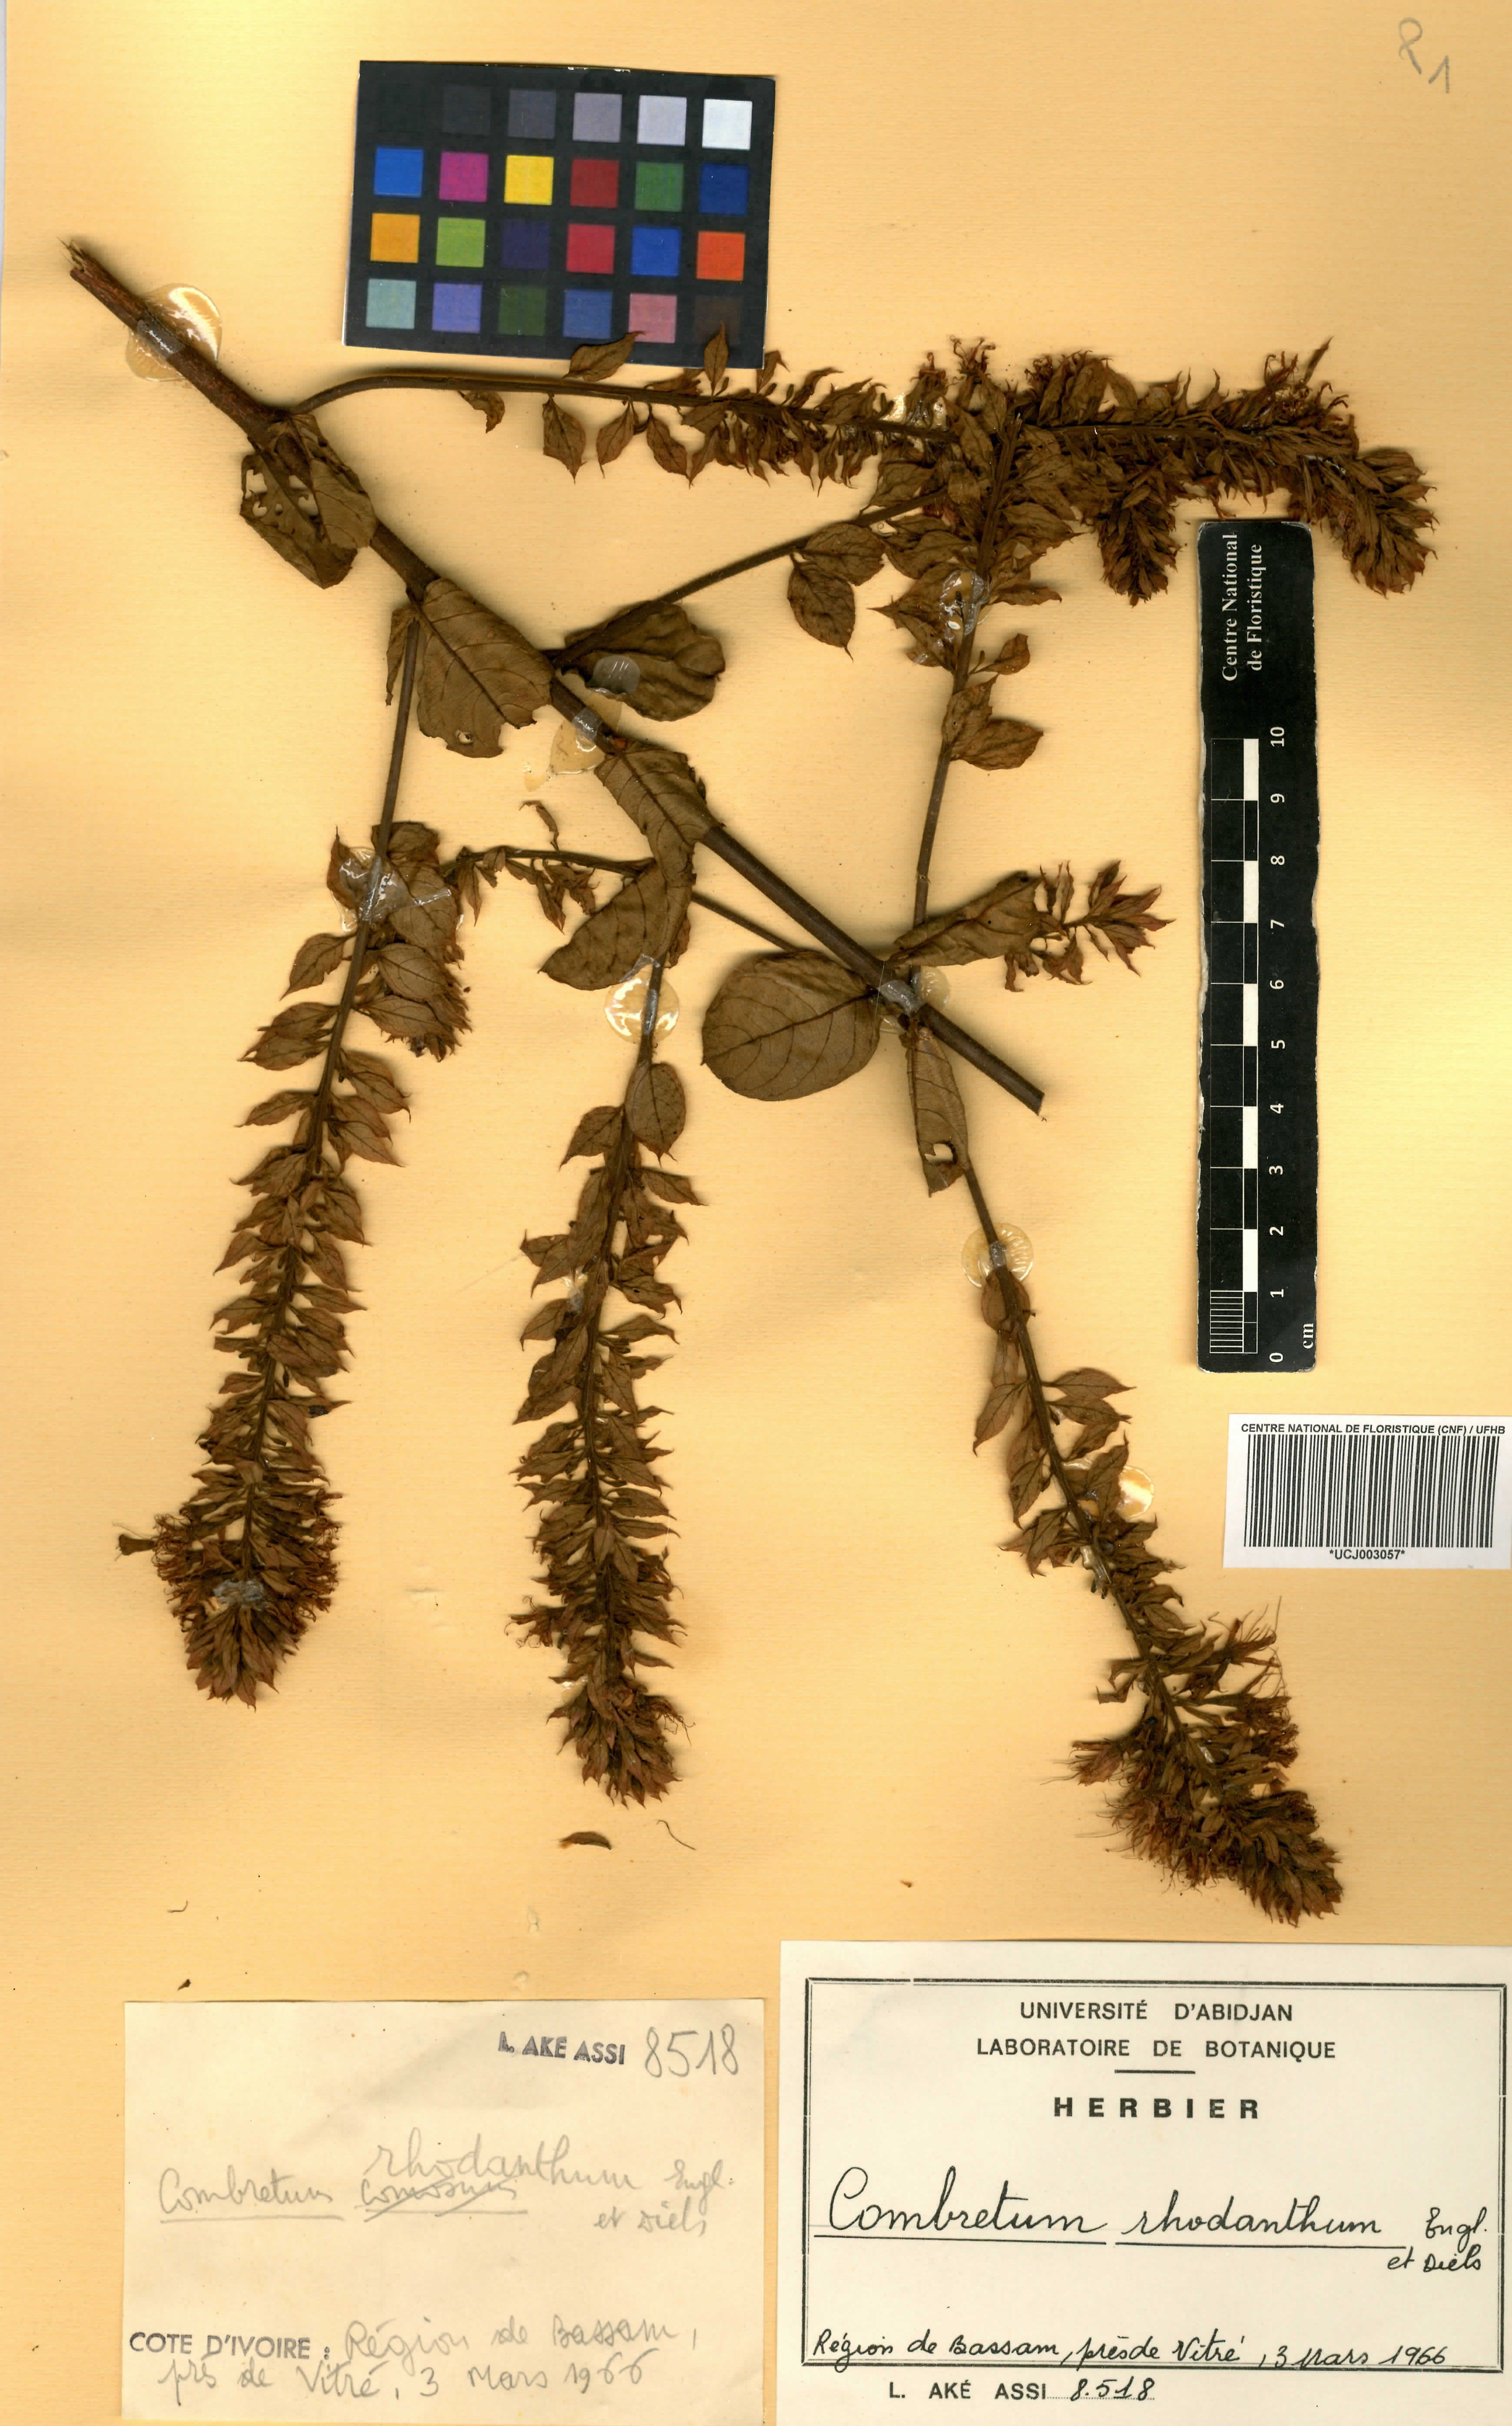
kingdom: Plantae
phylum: Tracheophyta
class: Magnoliopsida
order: Myrtales
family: Combretaceae
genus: Combretum
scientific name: Combretum comosum
